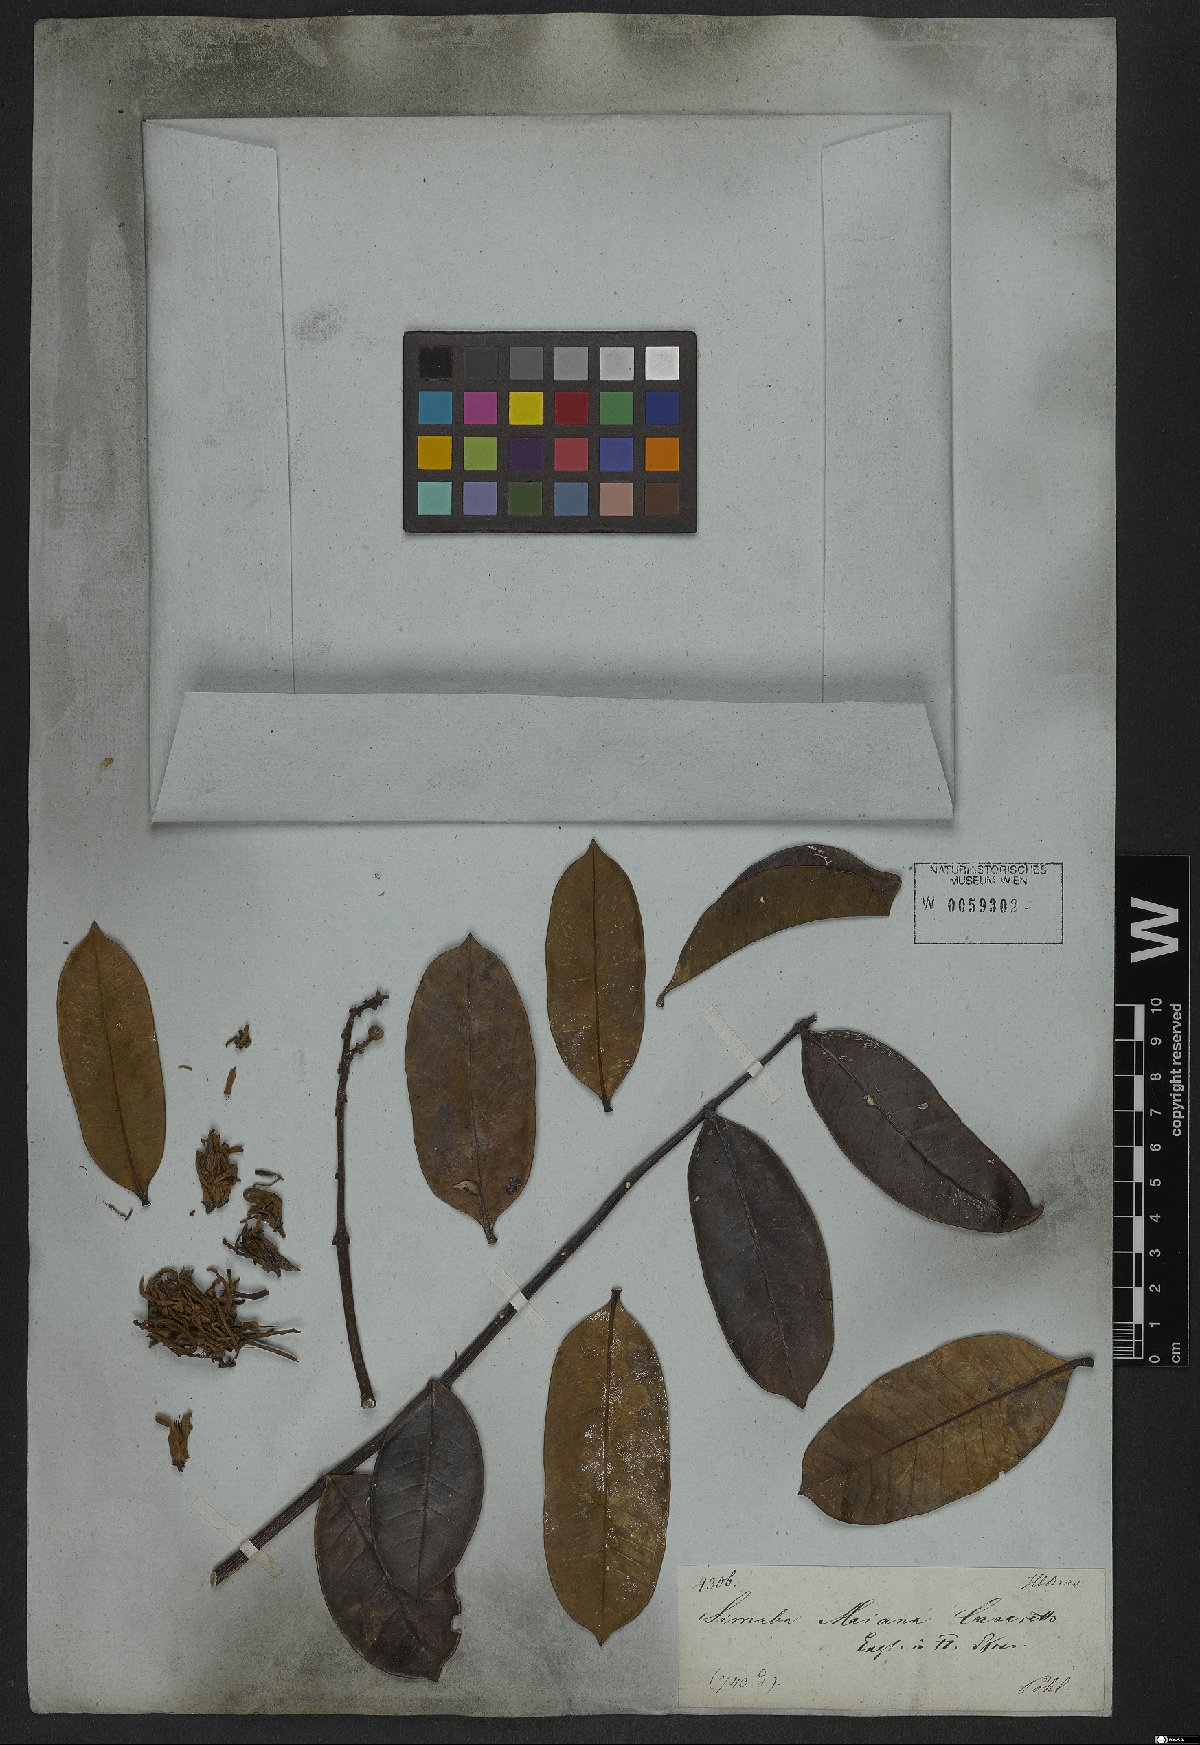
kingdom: Plantae
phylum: Tracheophyta
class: Magnoliopsida
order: Sapindales
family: Simaroubaceae
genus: Homalolepis
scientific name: Homalolepis maiana
